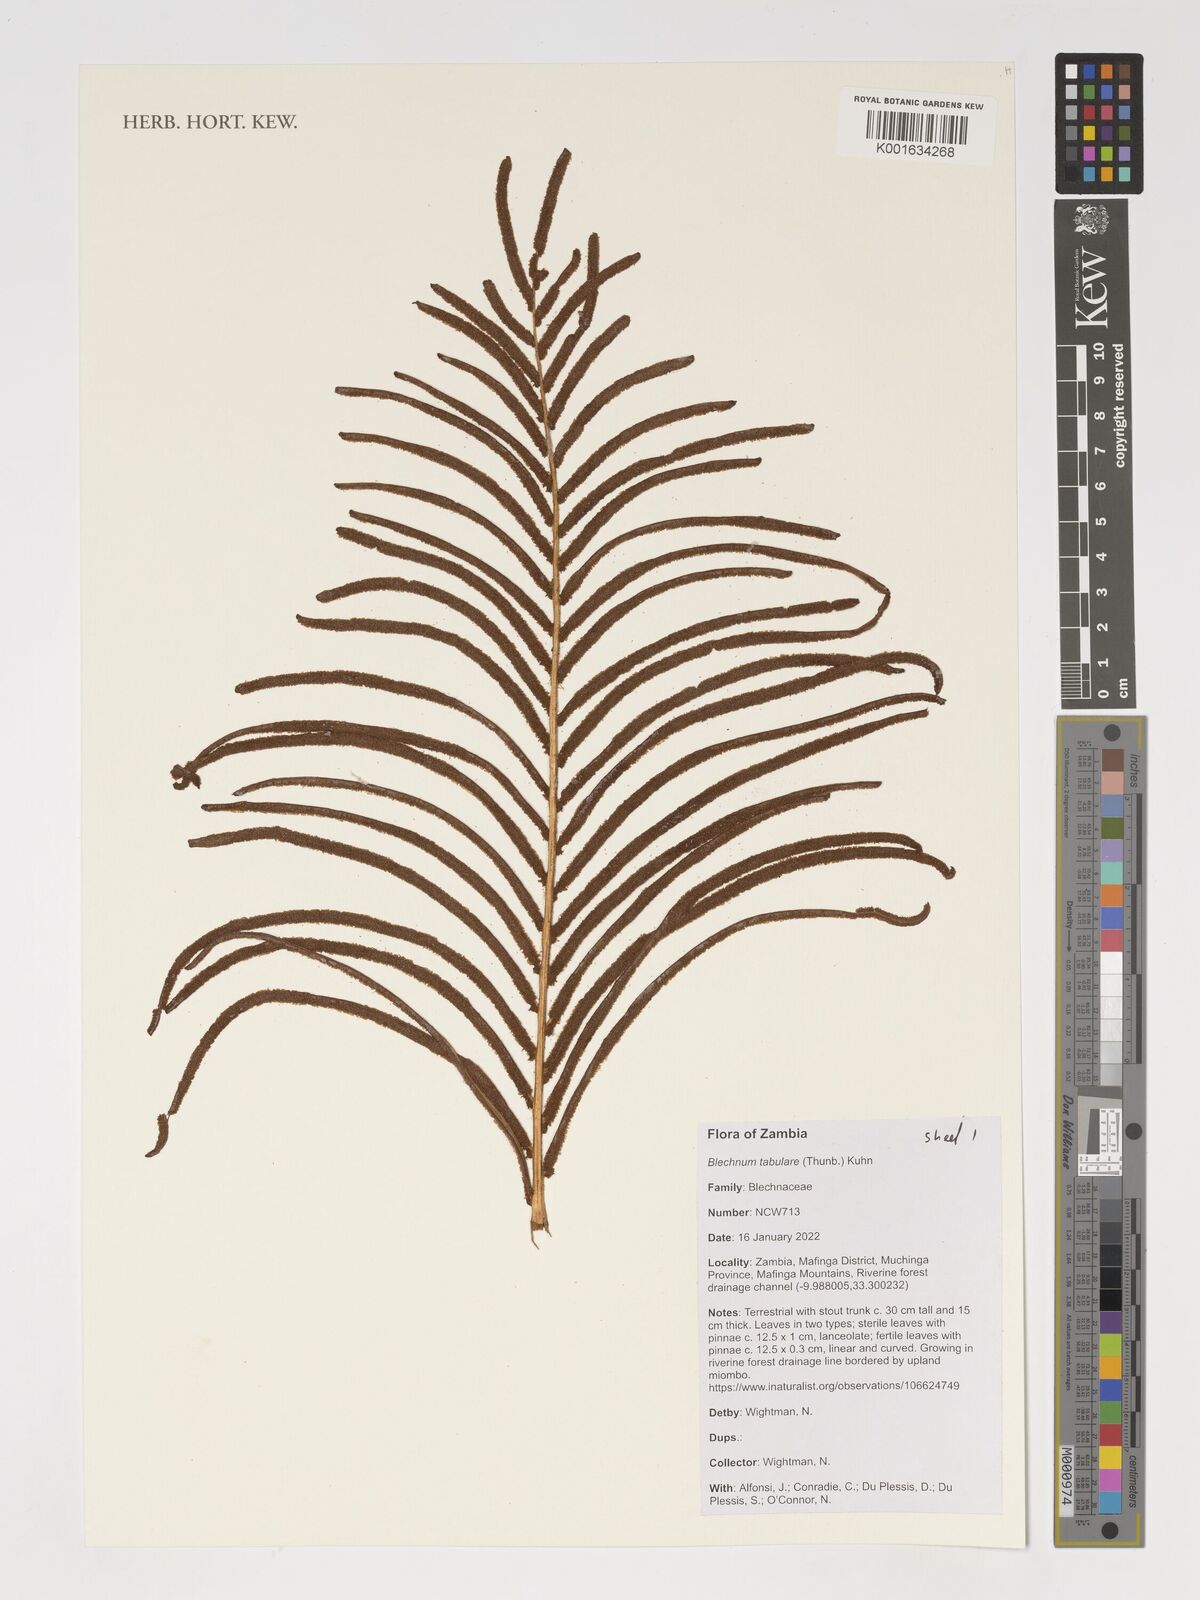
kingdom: Plantae
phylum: Tracheophyta
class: Polypodiopsida
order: Polypodiales
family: Blechnaceae
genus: Lomariocycas
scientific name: Lomariocycas tabularis
